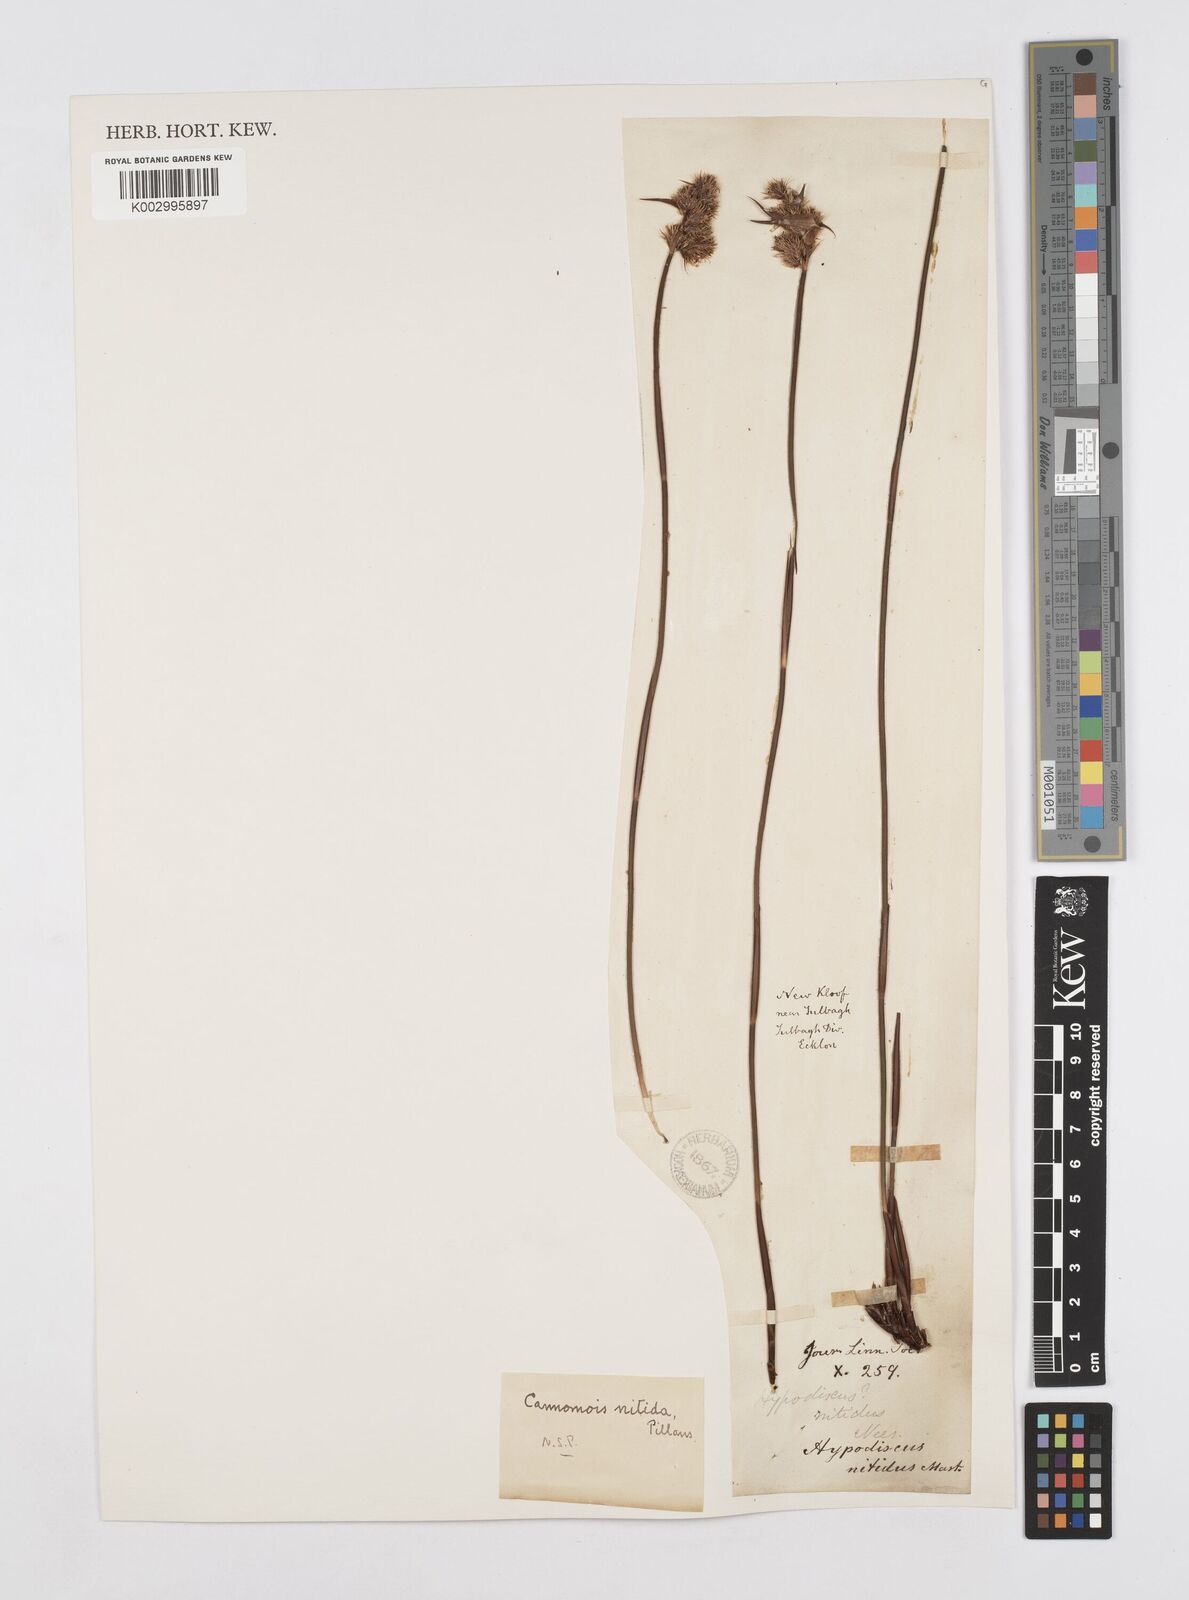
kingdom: Plantae
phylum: Tracheophyta
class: Liliopsida
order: Poales
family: Restionaceae
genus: Cannomois
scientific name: Cannomois nitida
